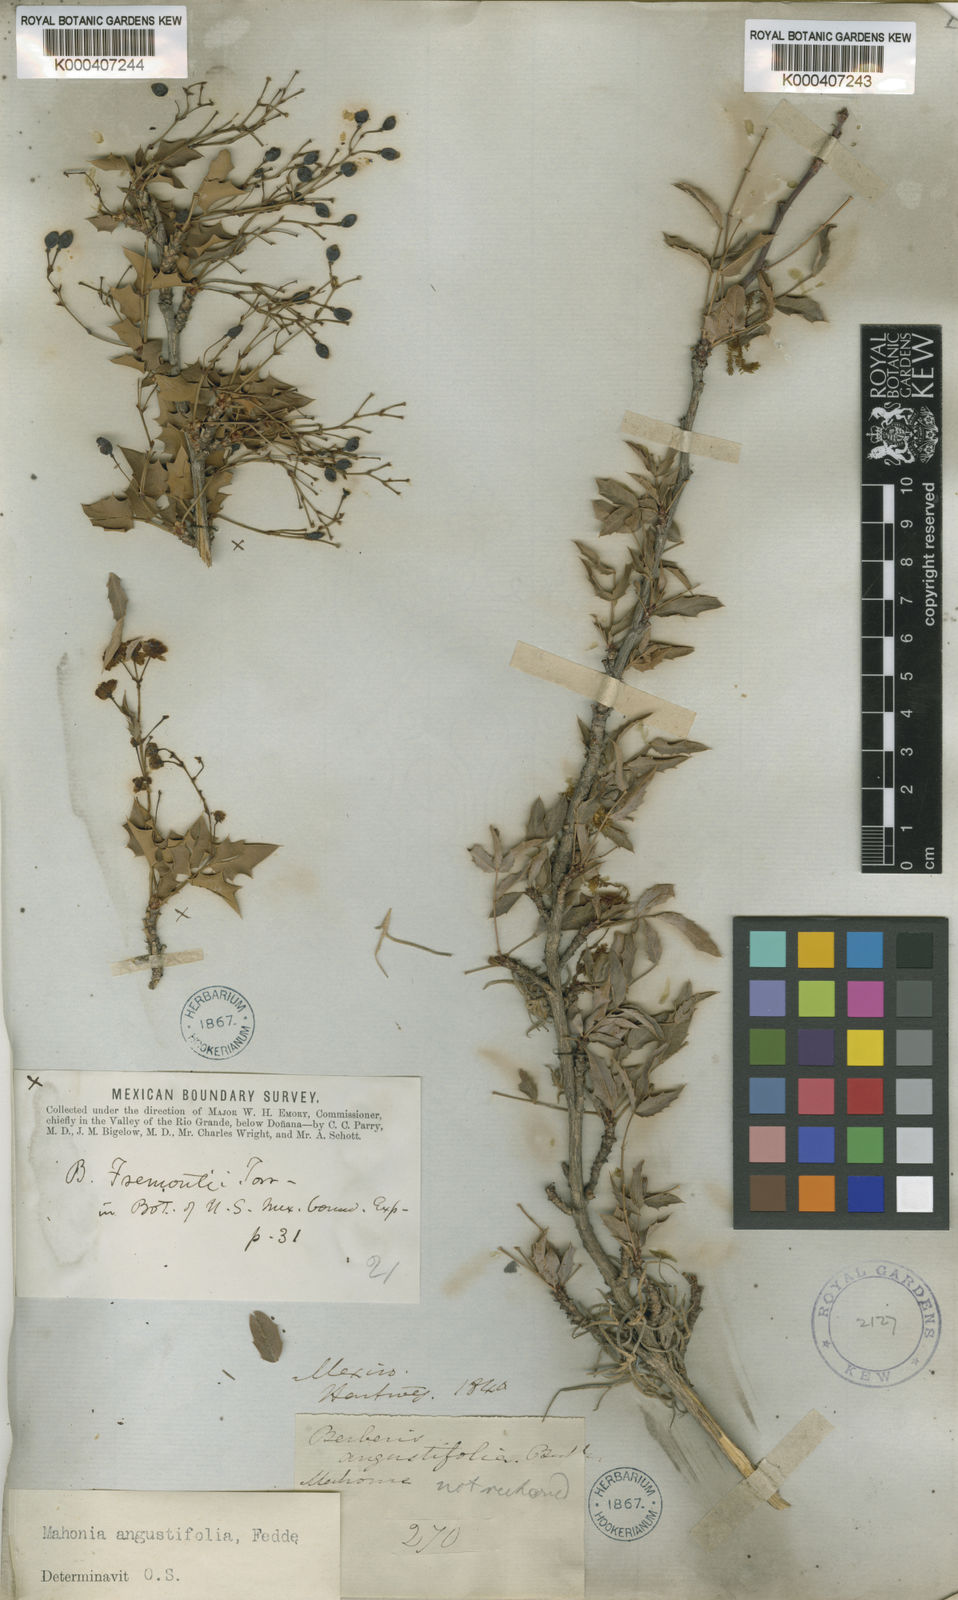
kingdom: Plantae
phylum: Tracheophyta
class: Magnoliopsida
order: Ranunculales
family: Berberidaceae
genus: Mahonia
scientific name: Mahonia angustifolia
